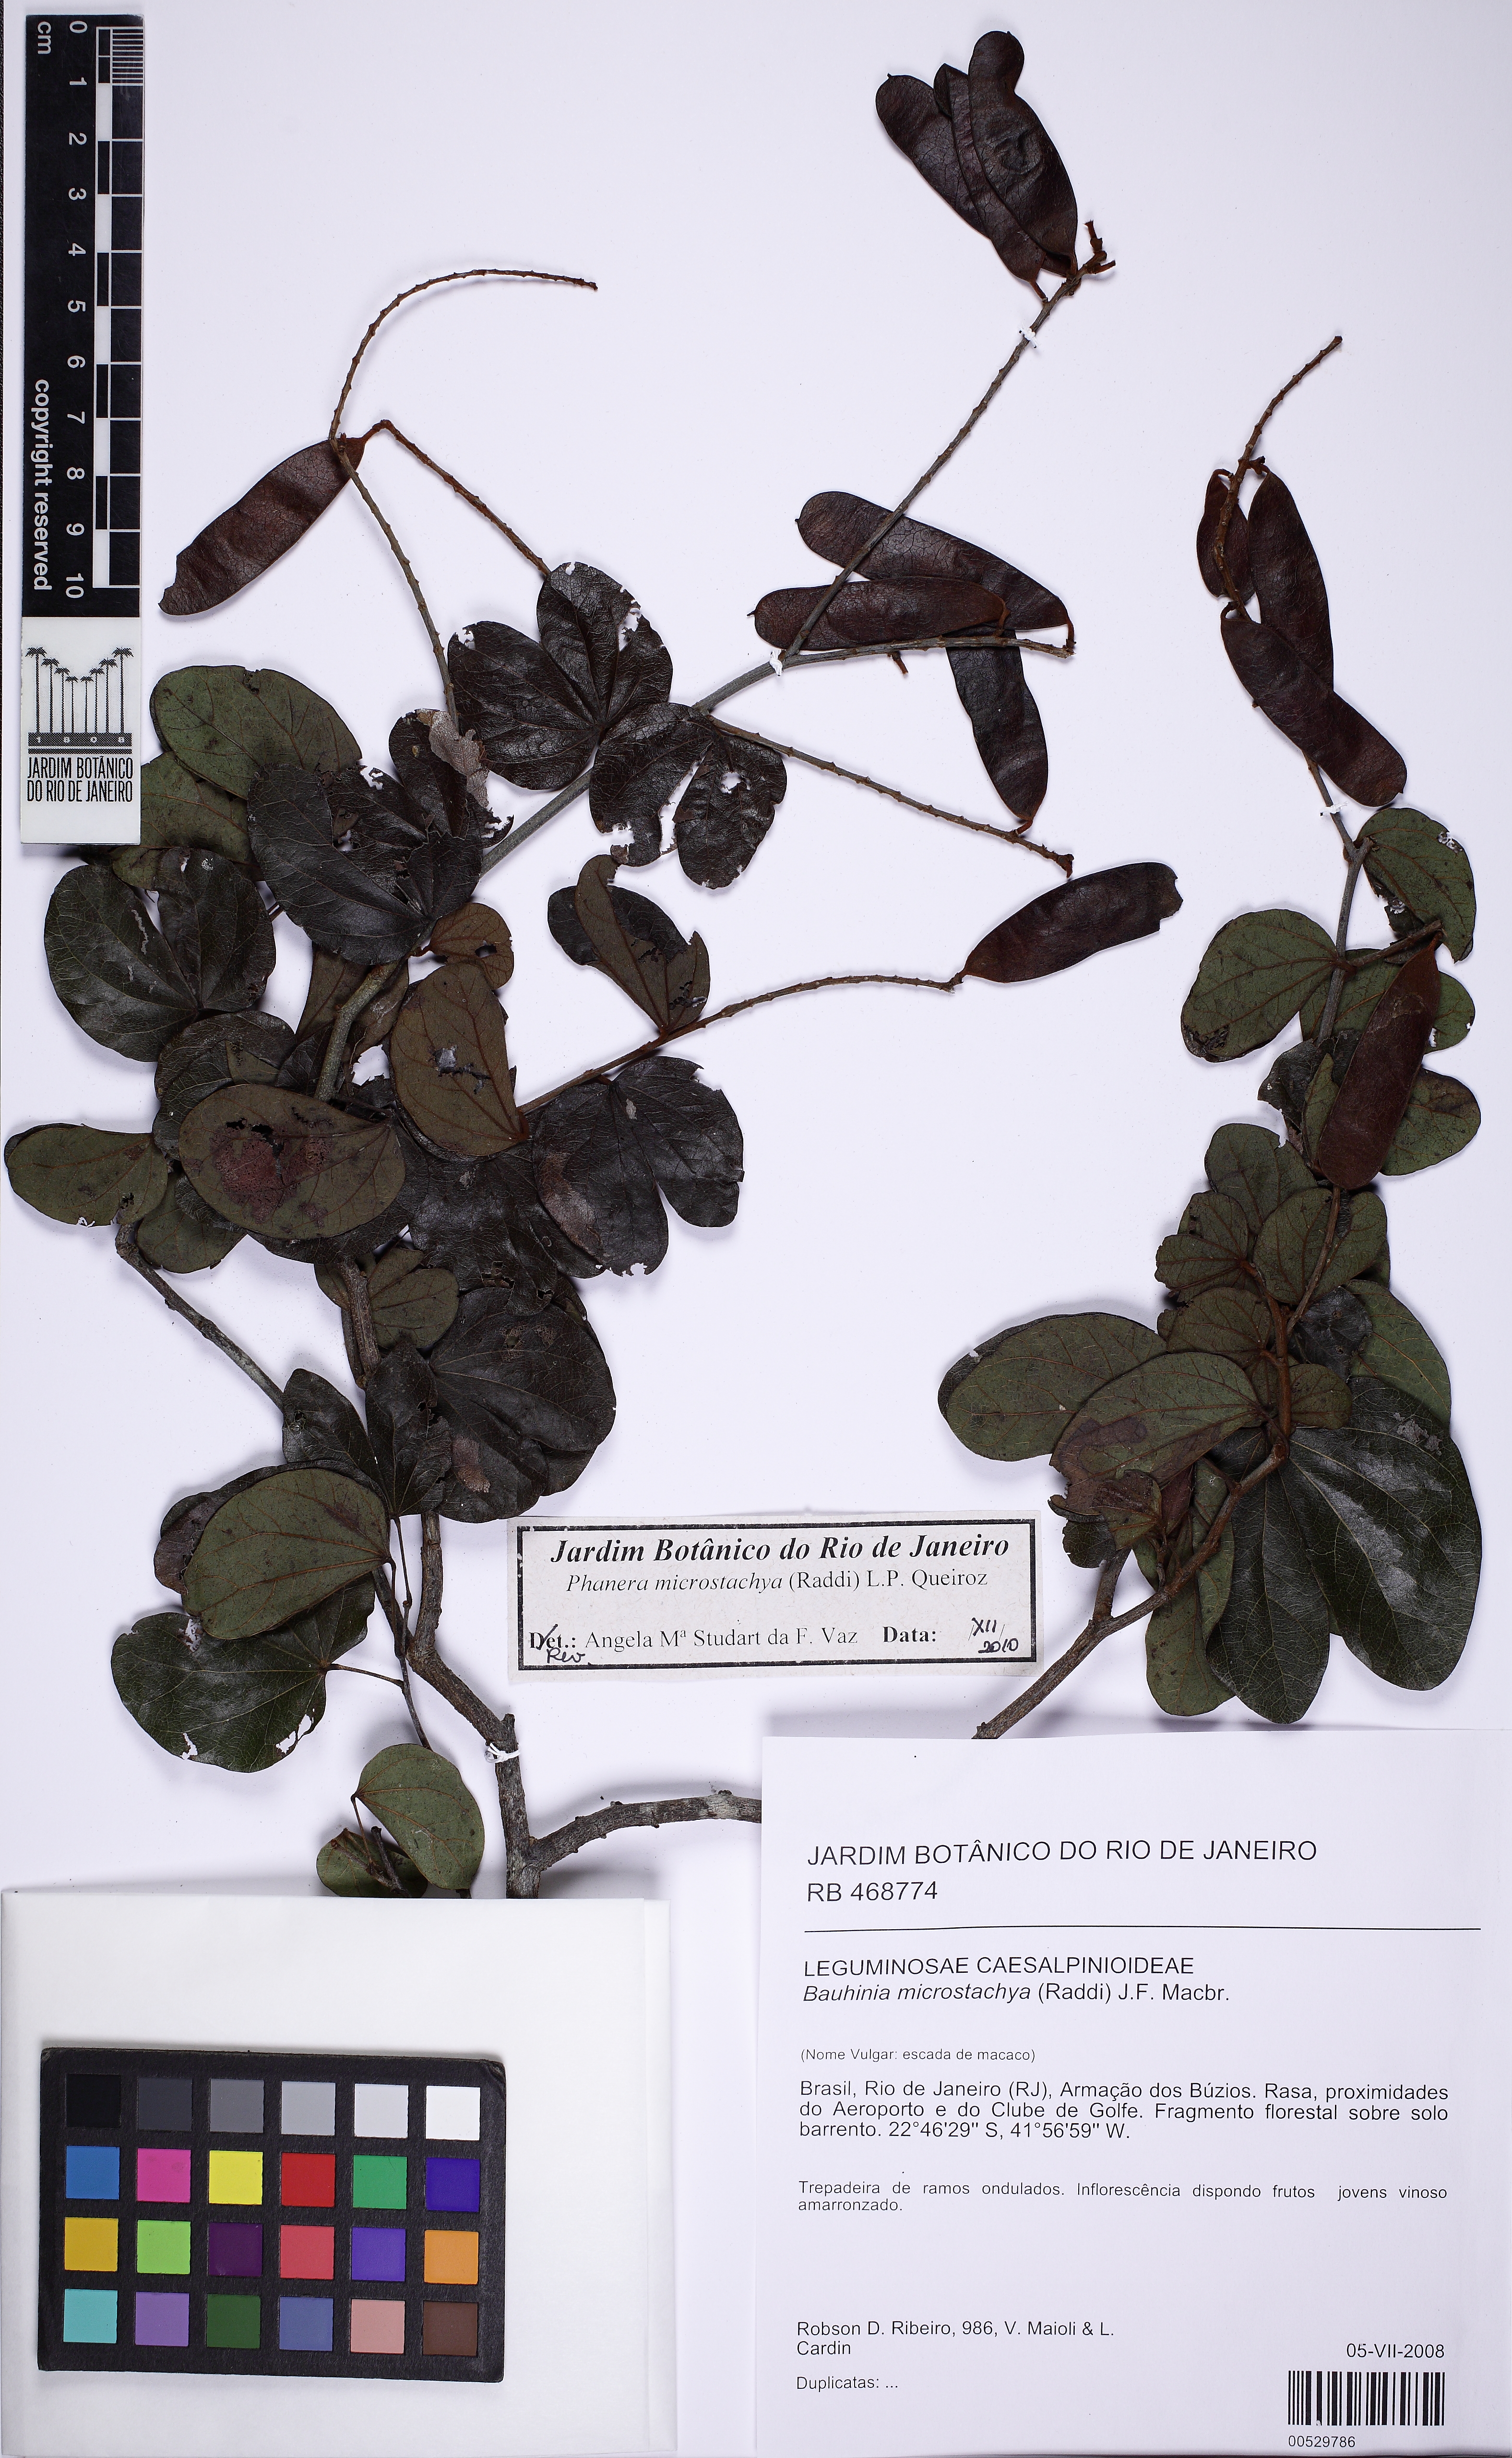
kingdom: Plantae
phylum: Tracheophyta
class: Magnoliopsida
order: Fabales
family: Fabaceae
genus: Schnella
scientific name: Schnella microstachya
